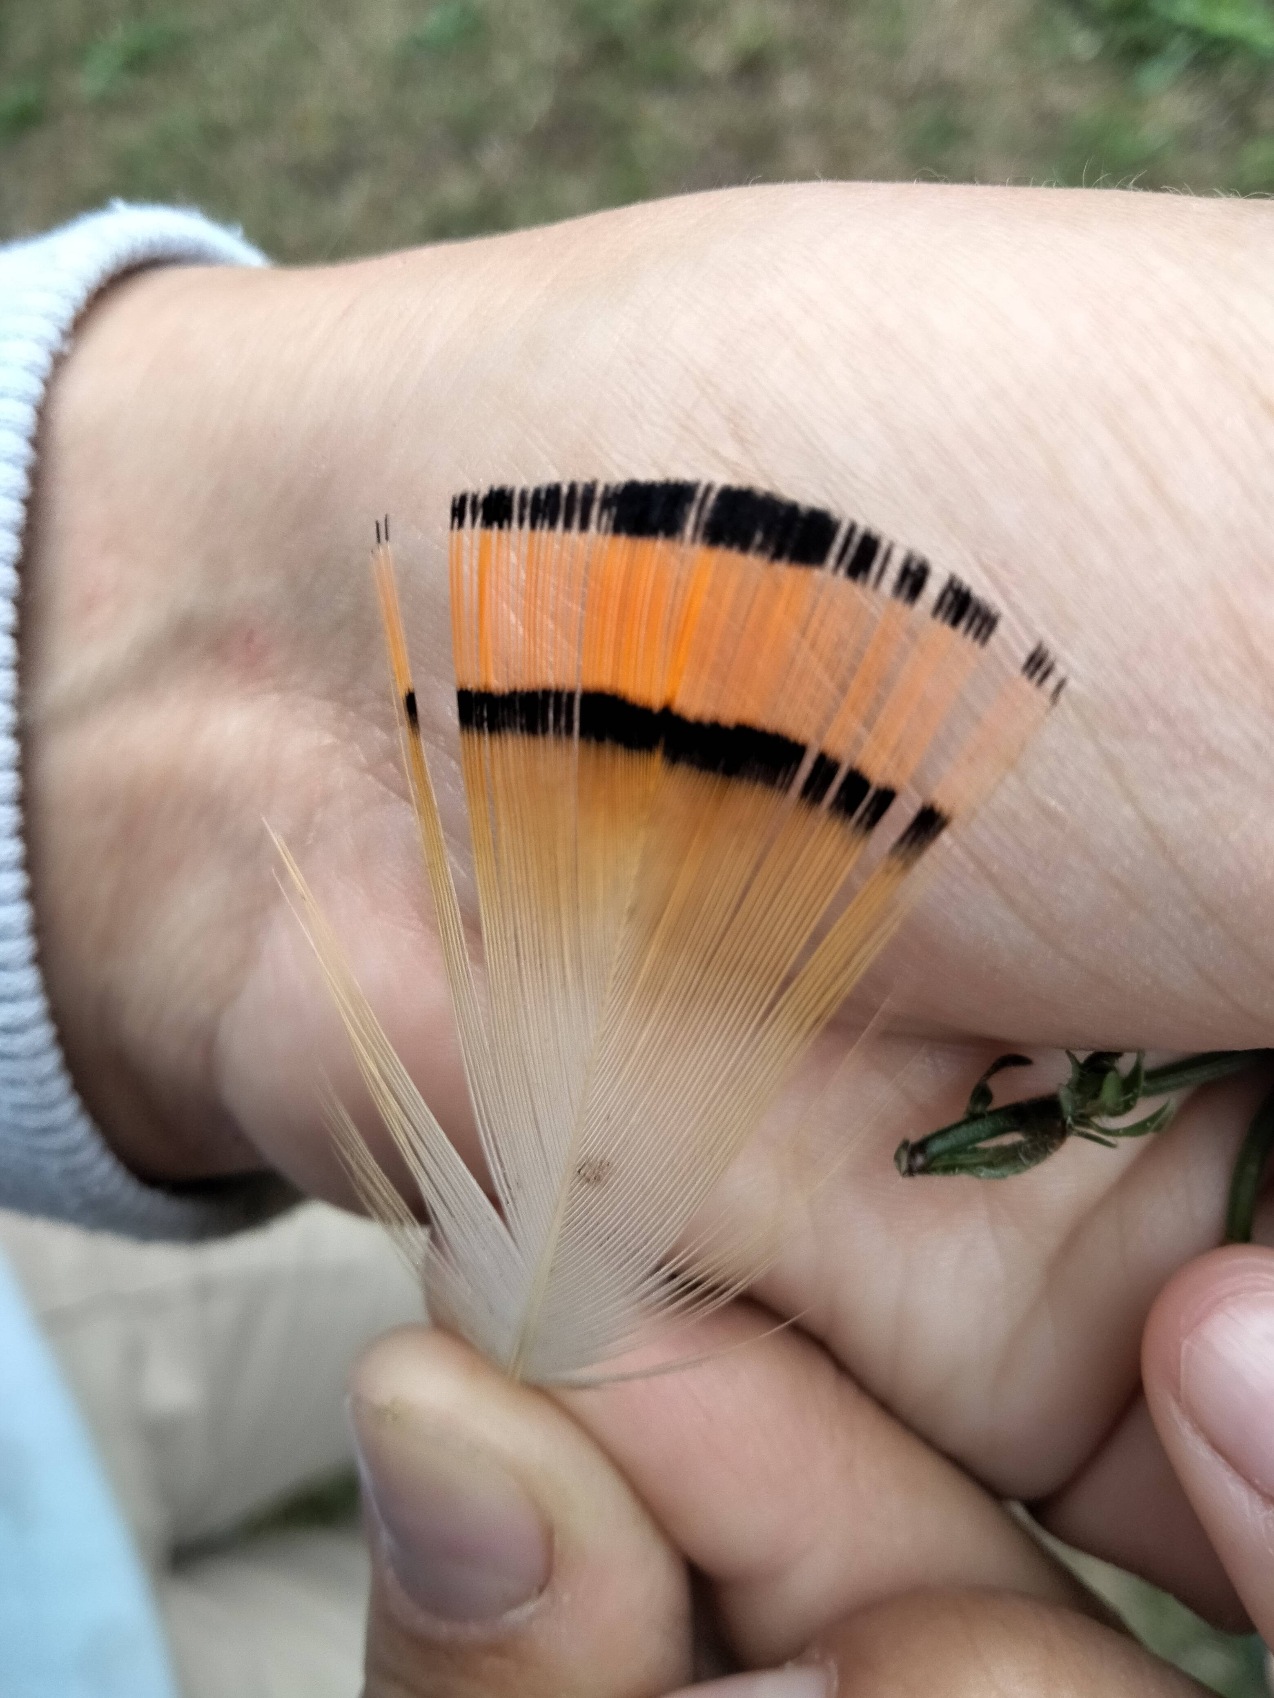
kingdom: Animalia
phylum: Chordata
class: Aves
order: Galliformes
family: Phasianidae
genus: Phasianus
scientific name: Phasianus colchicus
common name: Fasan
